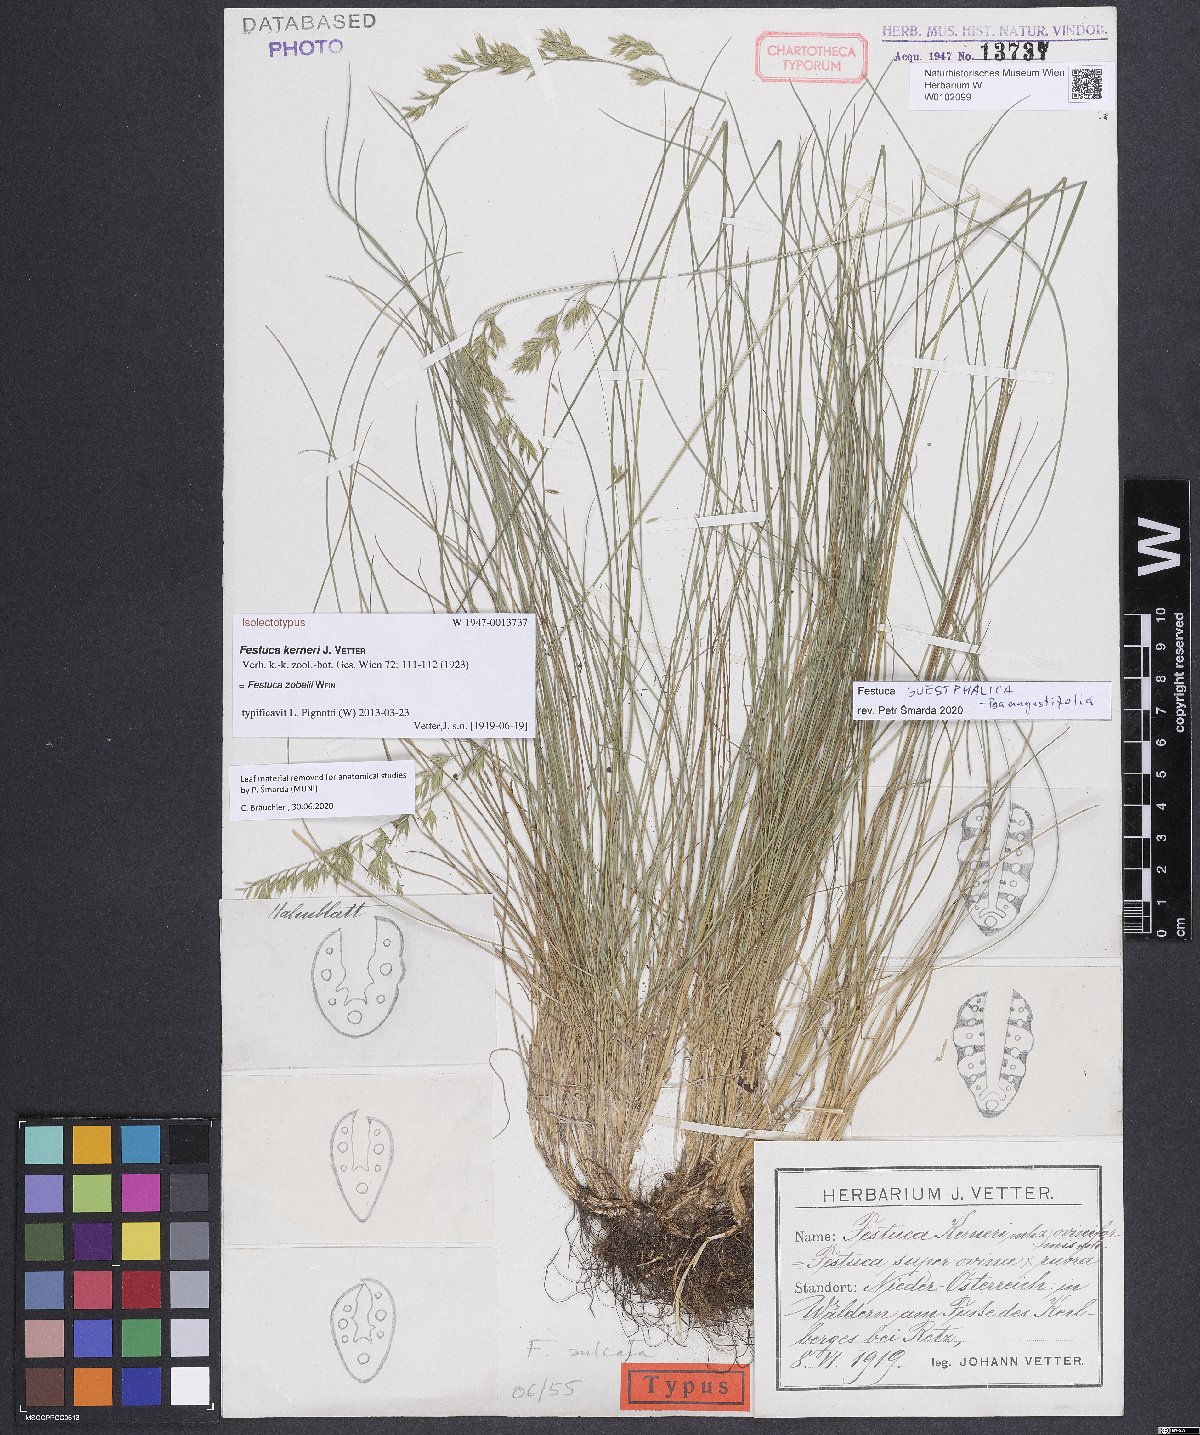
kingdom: Plantae
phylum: Tracheophyta
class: Liliopsida
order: Poales
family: Poaceae
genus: Festuca
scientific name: Festuca zobelii
